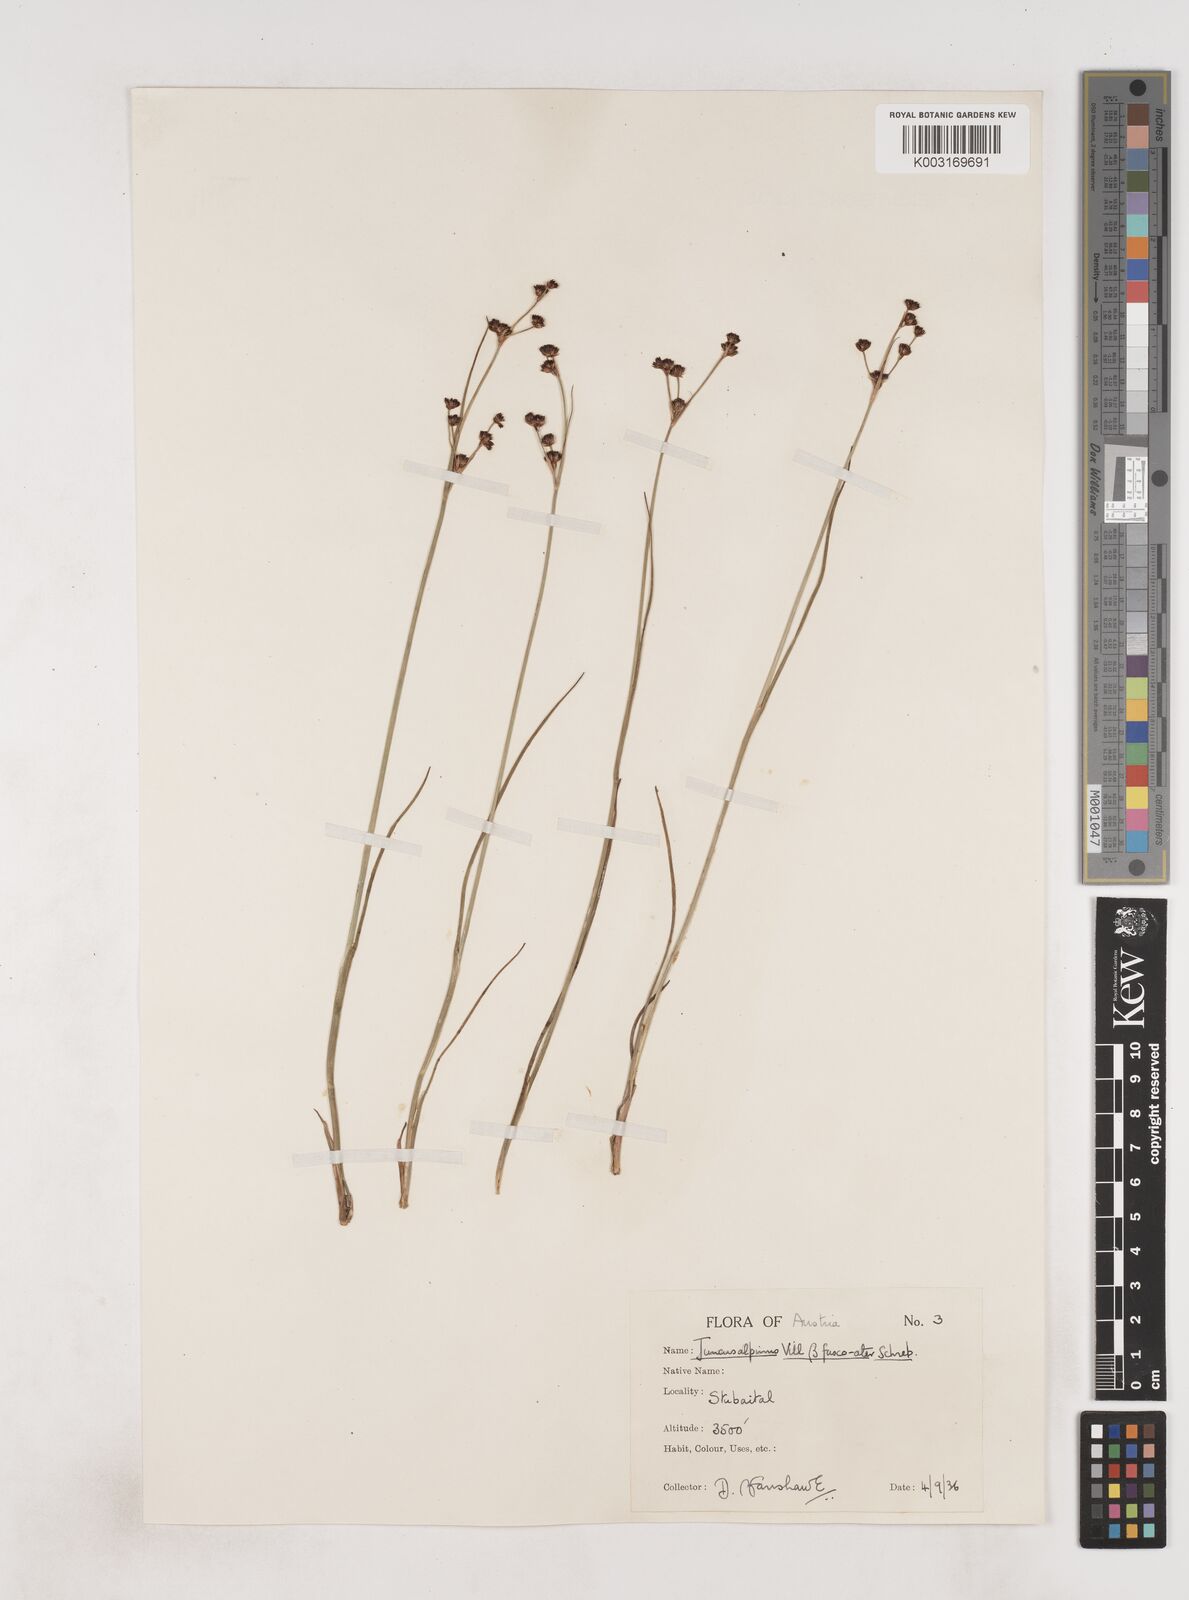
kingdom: Plantae
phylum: Tracheophyta
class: Liliopsida
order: Poales
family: Juncaceae
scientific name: Juncaceae
